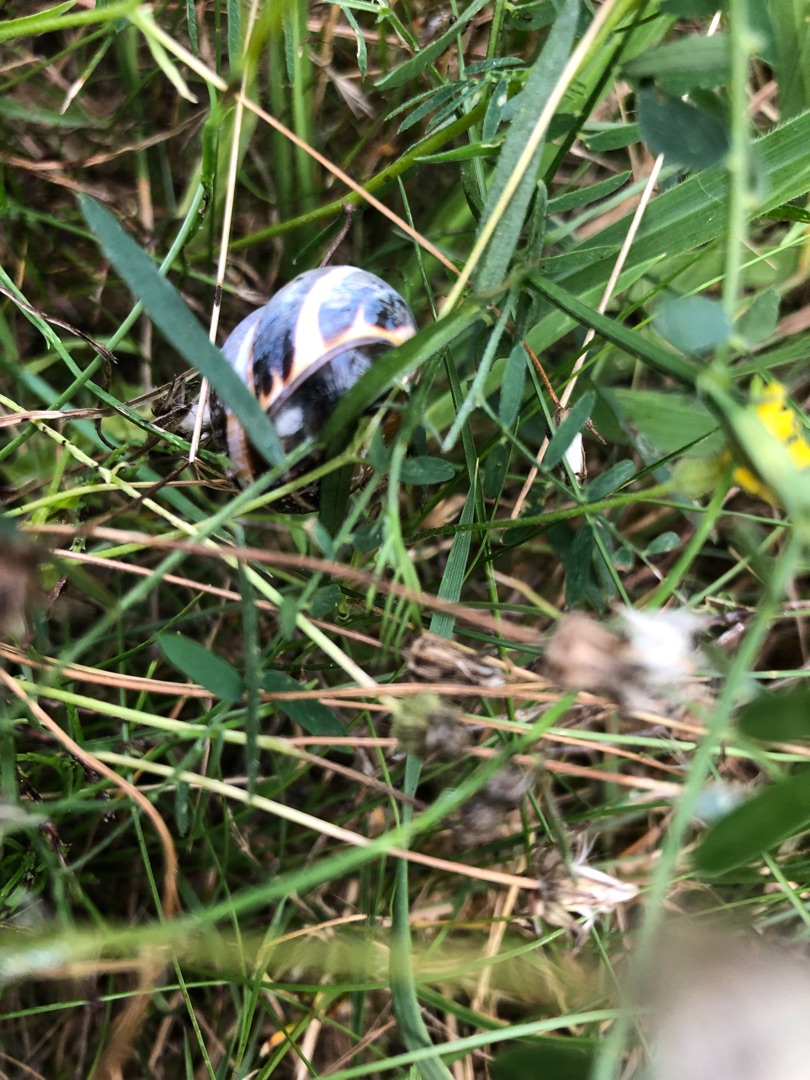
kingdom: Animalia
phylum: Mollusca
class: Gastropoda
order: Stylommatophora
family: Helicidae
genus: Cepaea
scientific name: Cepaea nemoralis
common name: Lundsnegl
